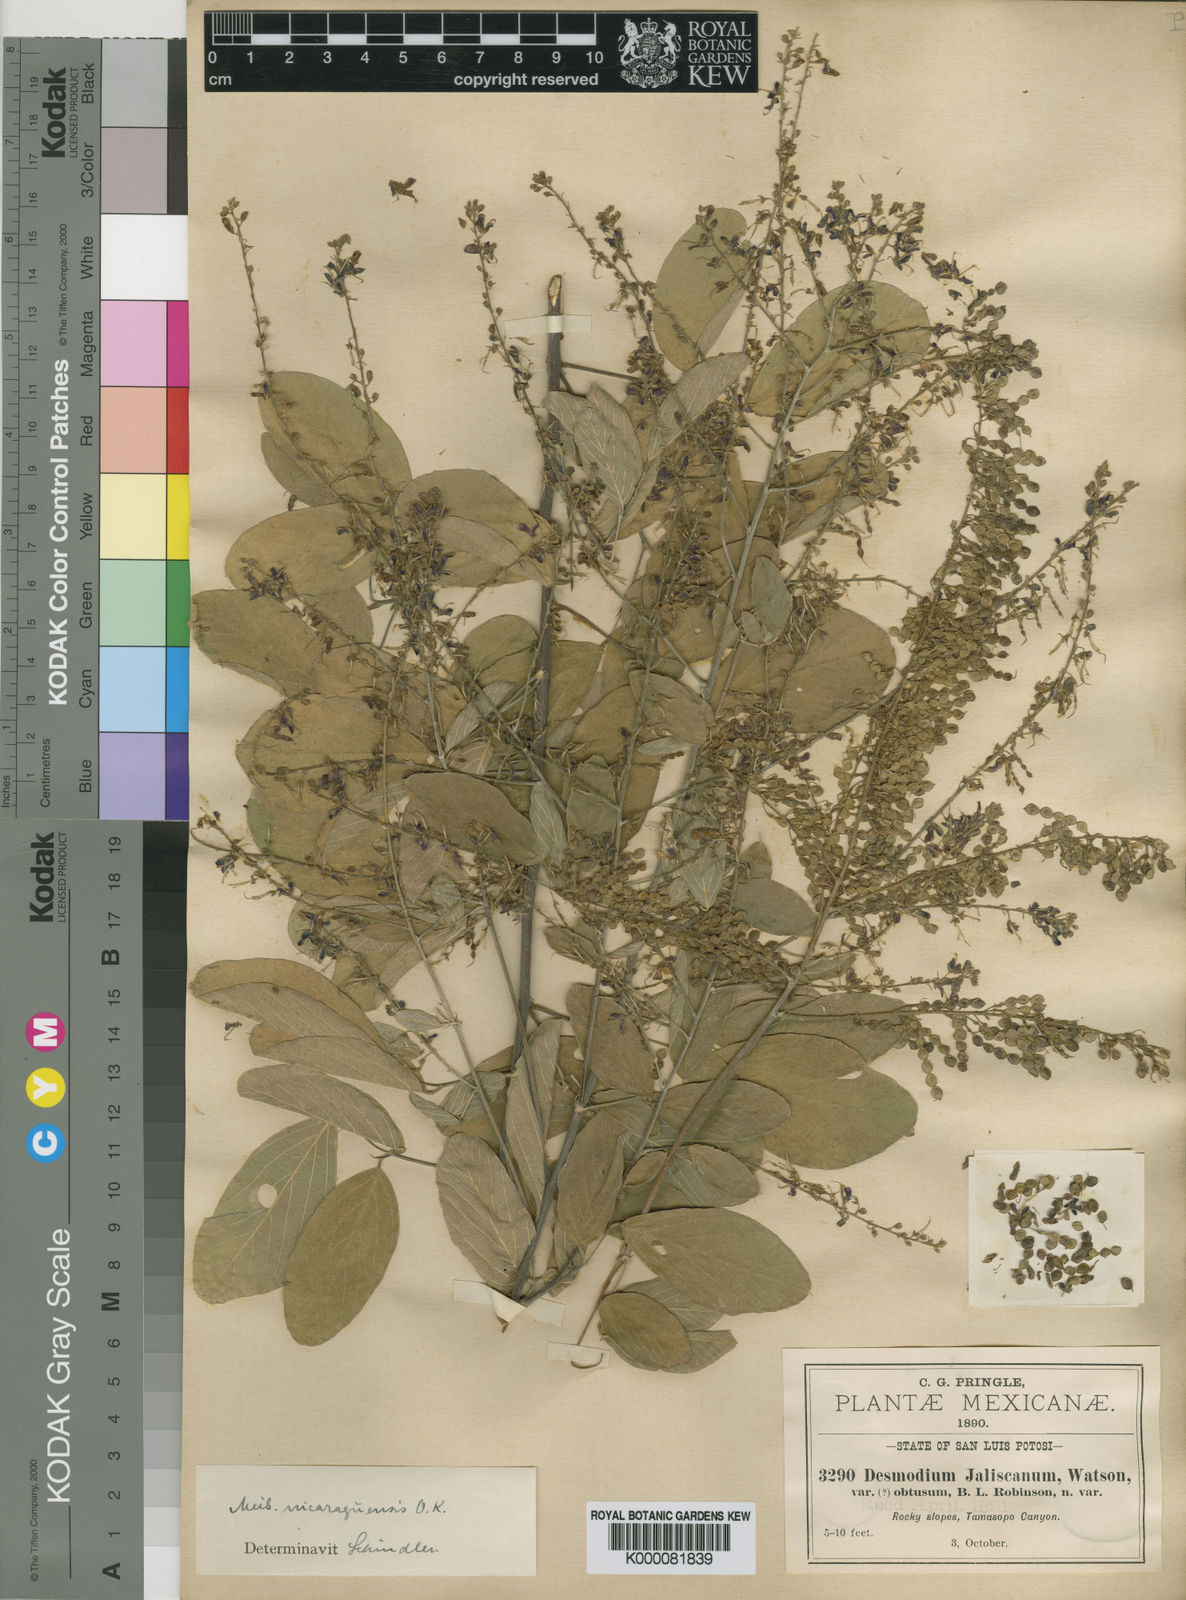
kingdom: Plantae
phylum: Tracheophyta
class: Magnoliopsida
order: Fabales
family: Fabaceae
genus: Desmodium
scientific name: Desmodium
